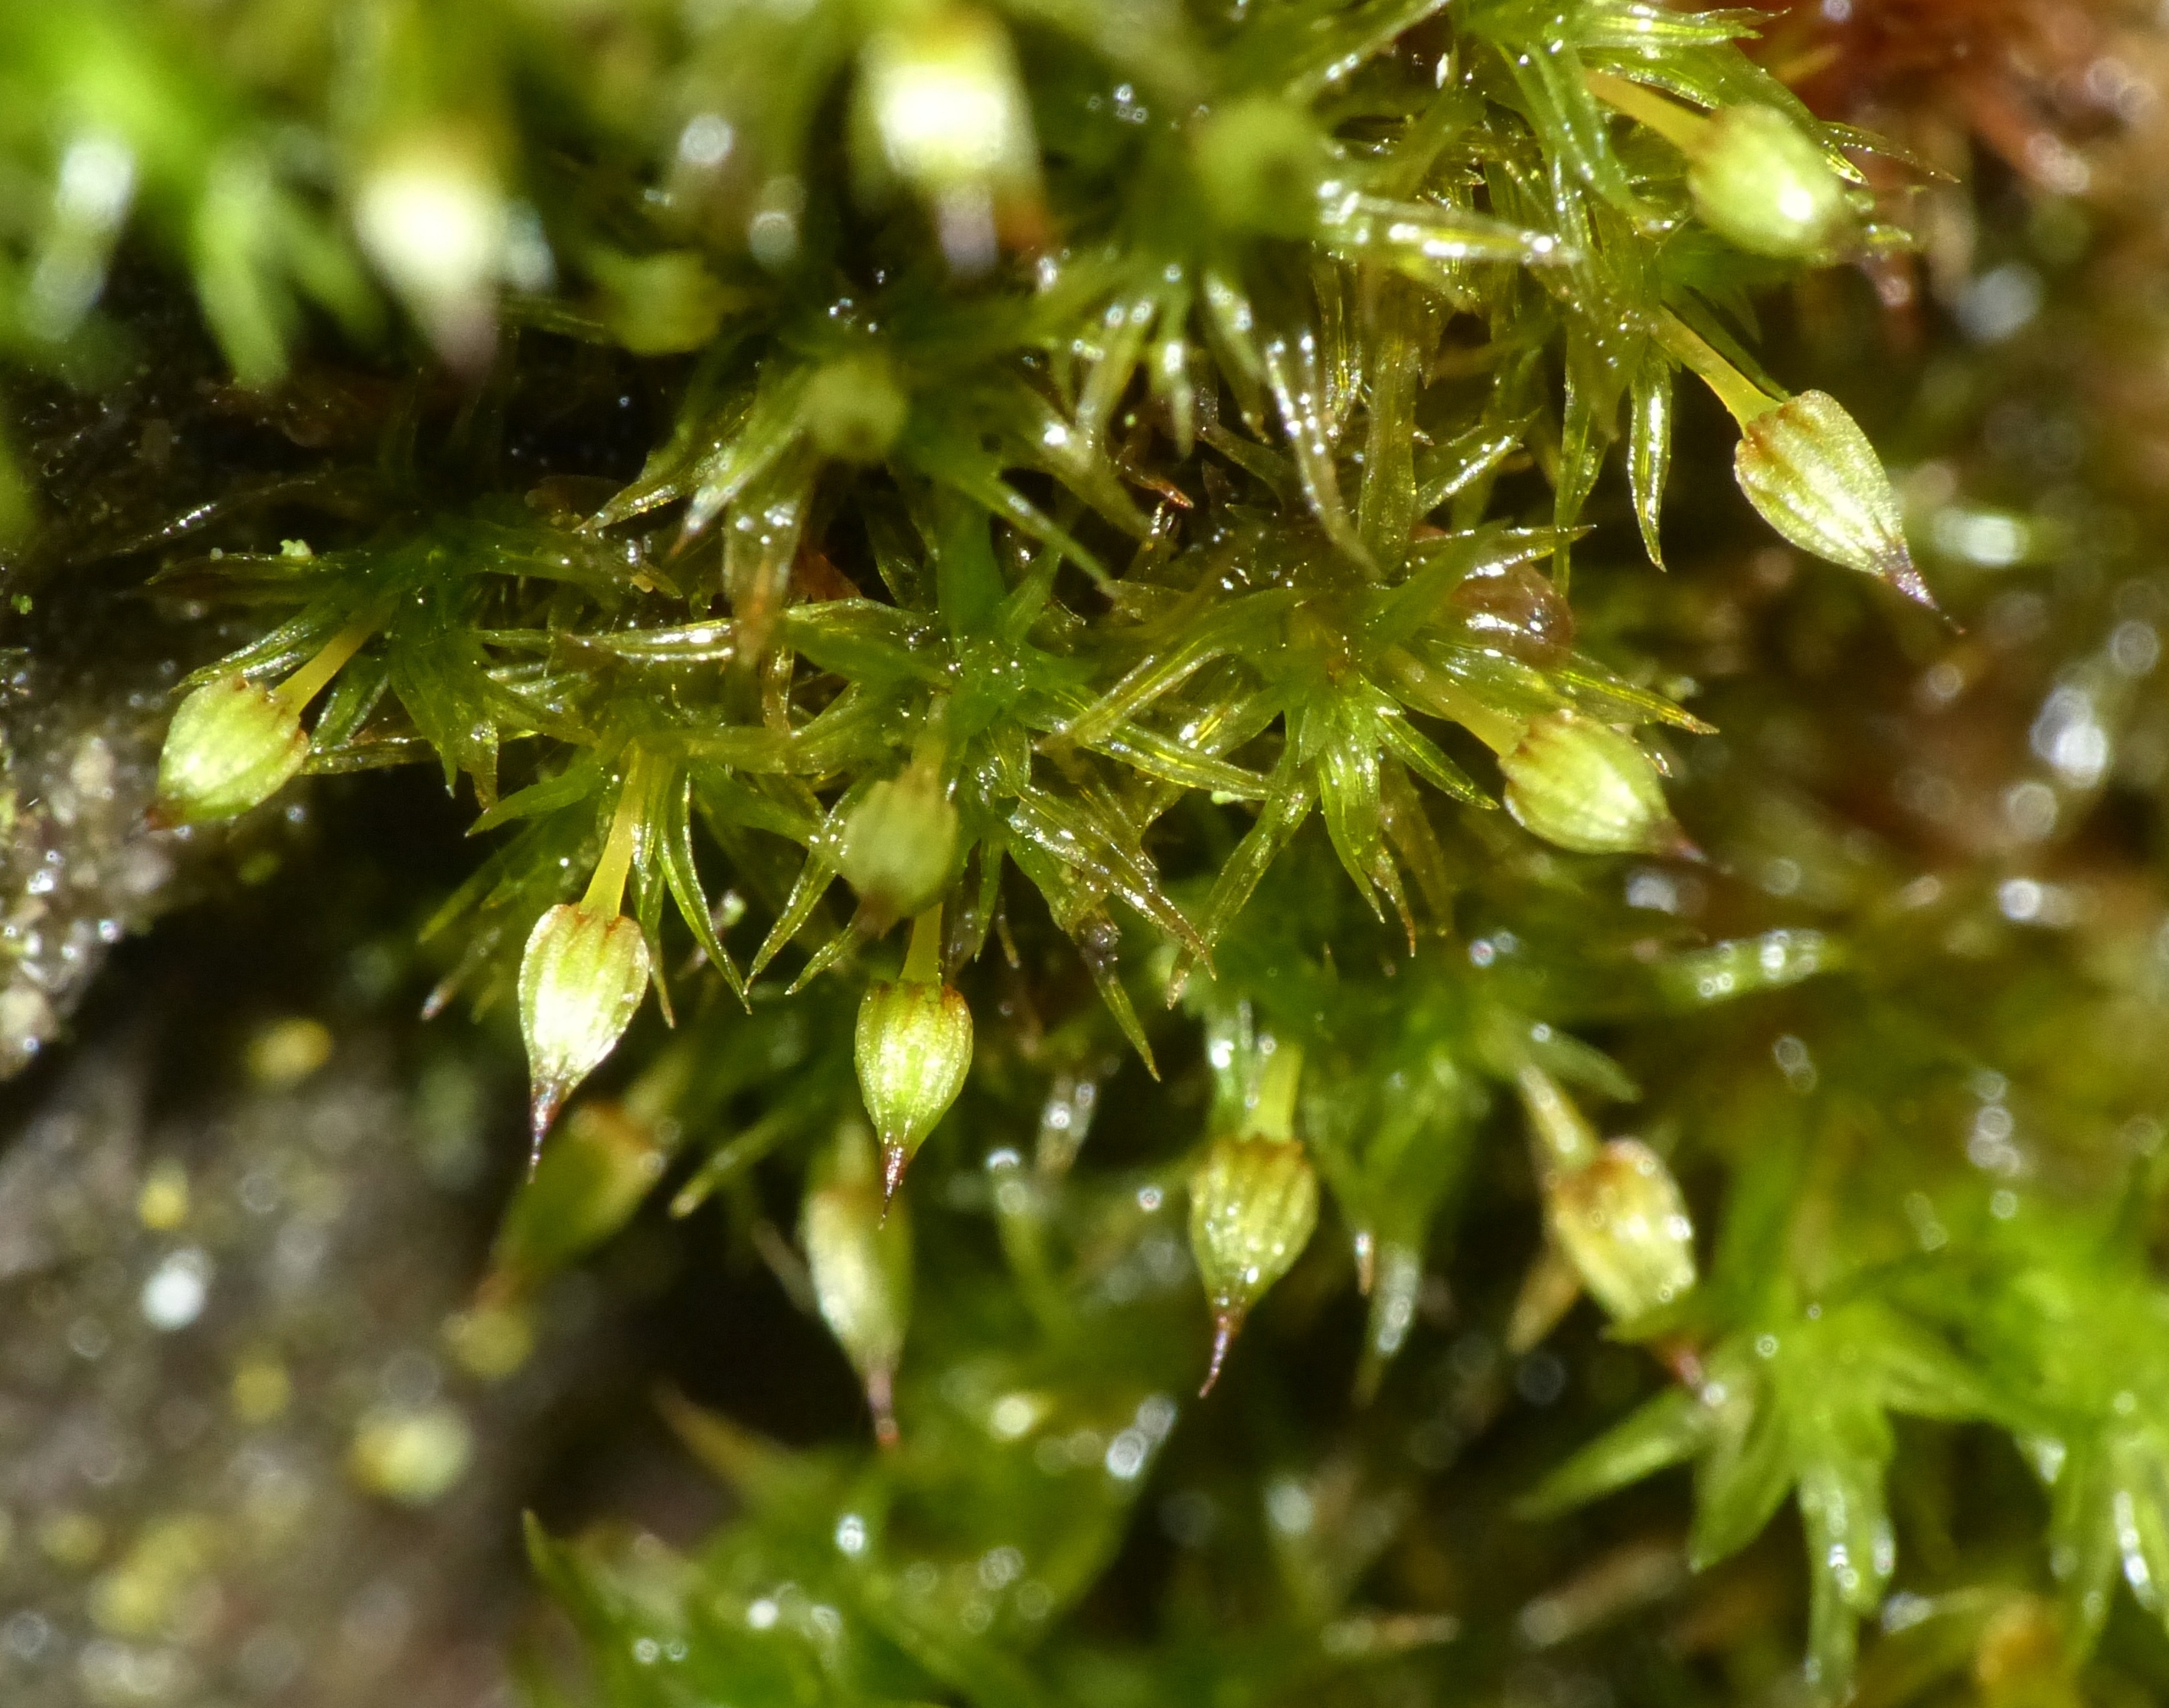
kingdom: Plantae
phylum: Bryophyta
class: Bryopsida
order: Orthotrichales
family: Orthotrichaceae
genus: Orthotrichum
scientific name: Orthotrichum pulchellum
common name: Smuk furehætte
